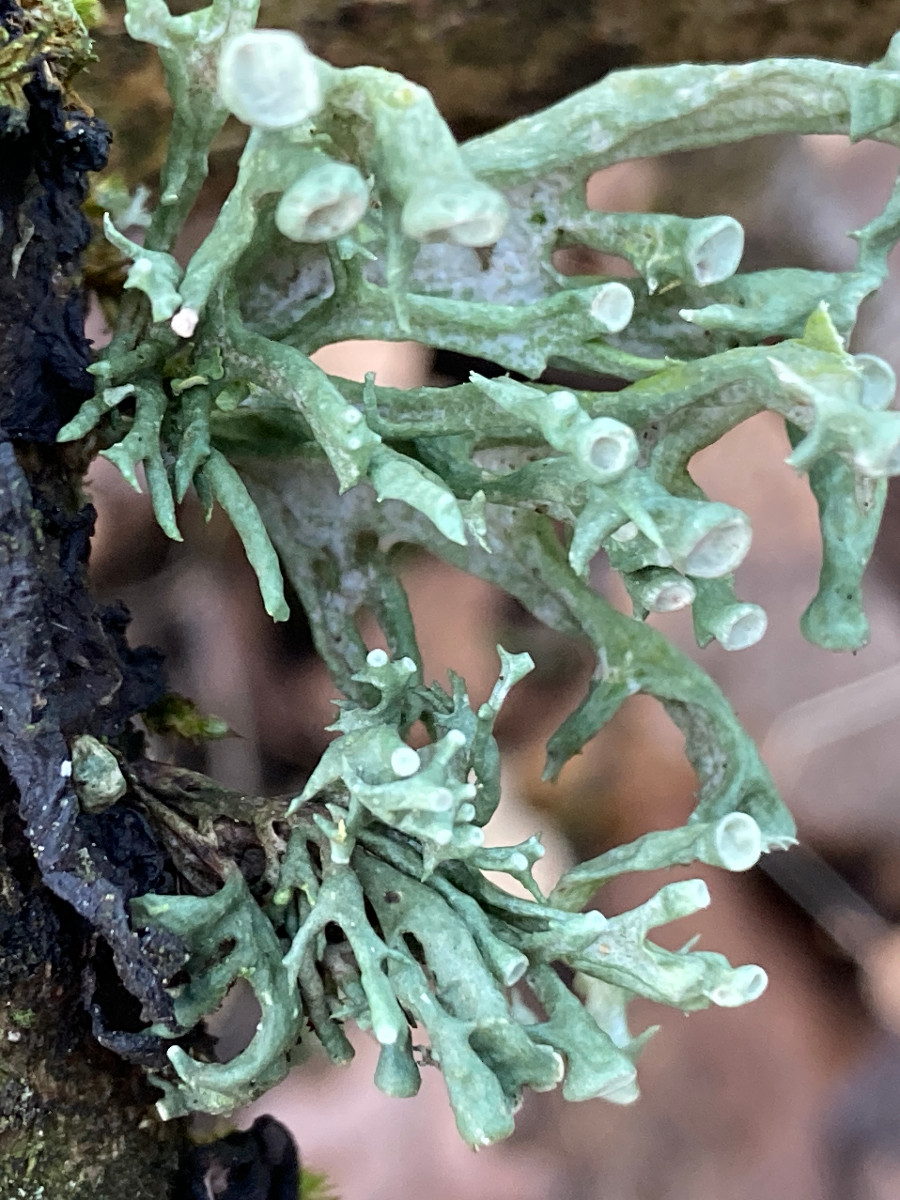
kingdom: Fungi
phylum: Ascomycota
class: Lecanoromycetes
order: Lecanorales
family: Ramalinaceae
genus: Ramalina
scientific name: Ramalina fastigiata
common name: tue-grenlav
